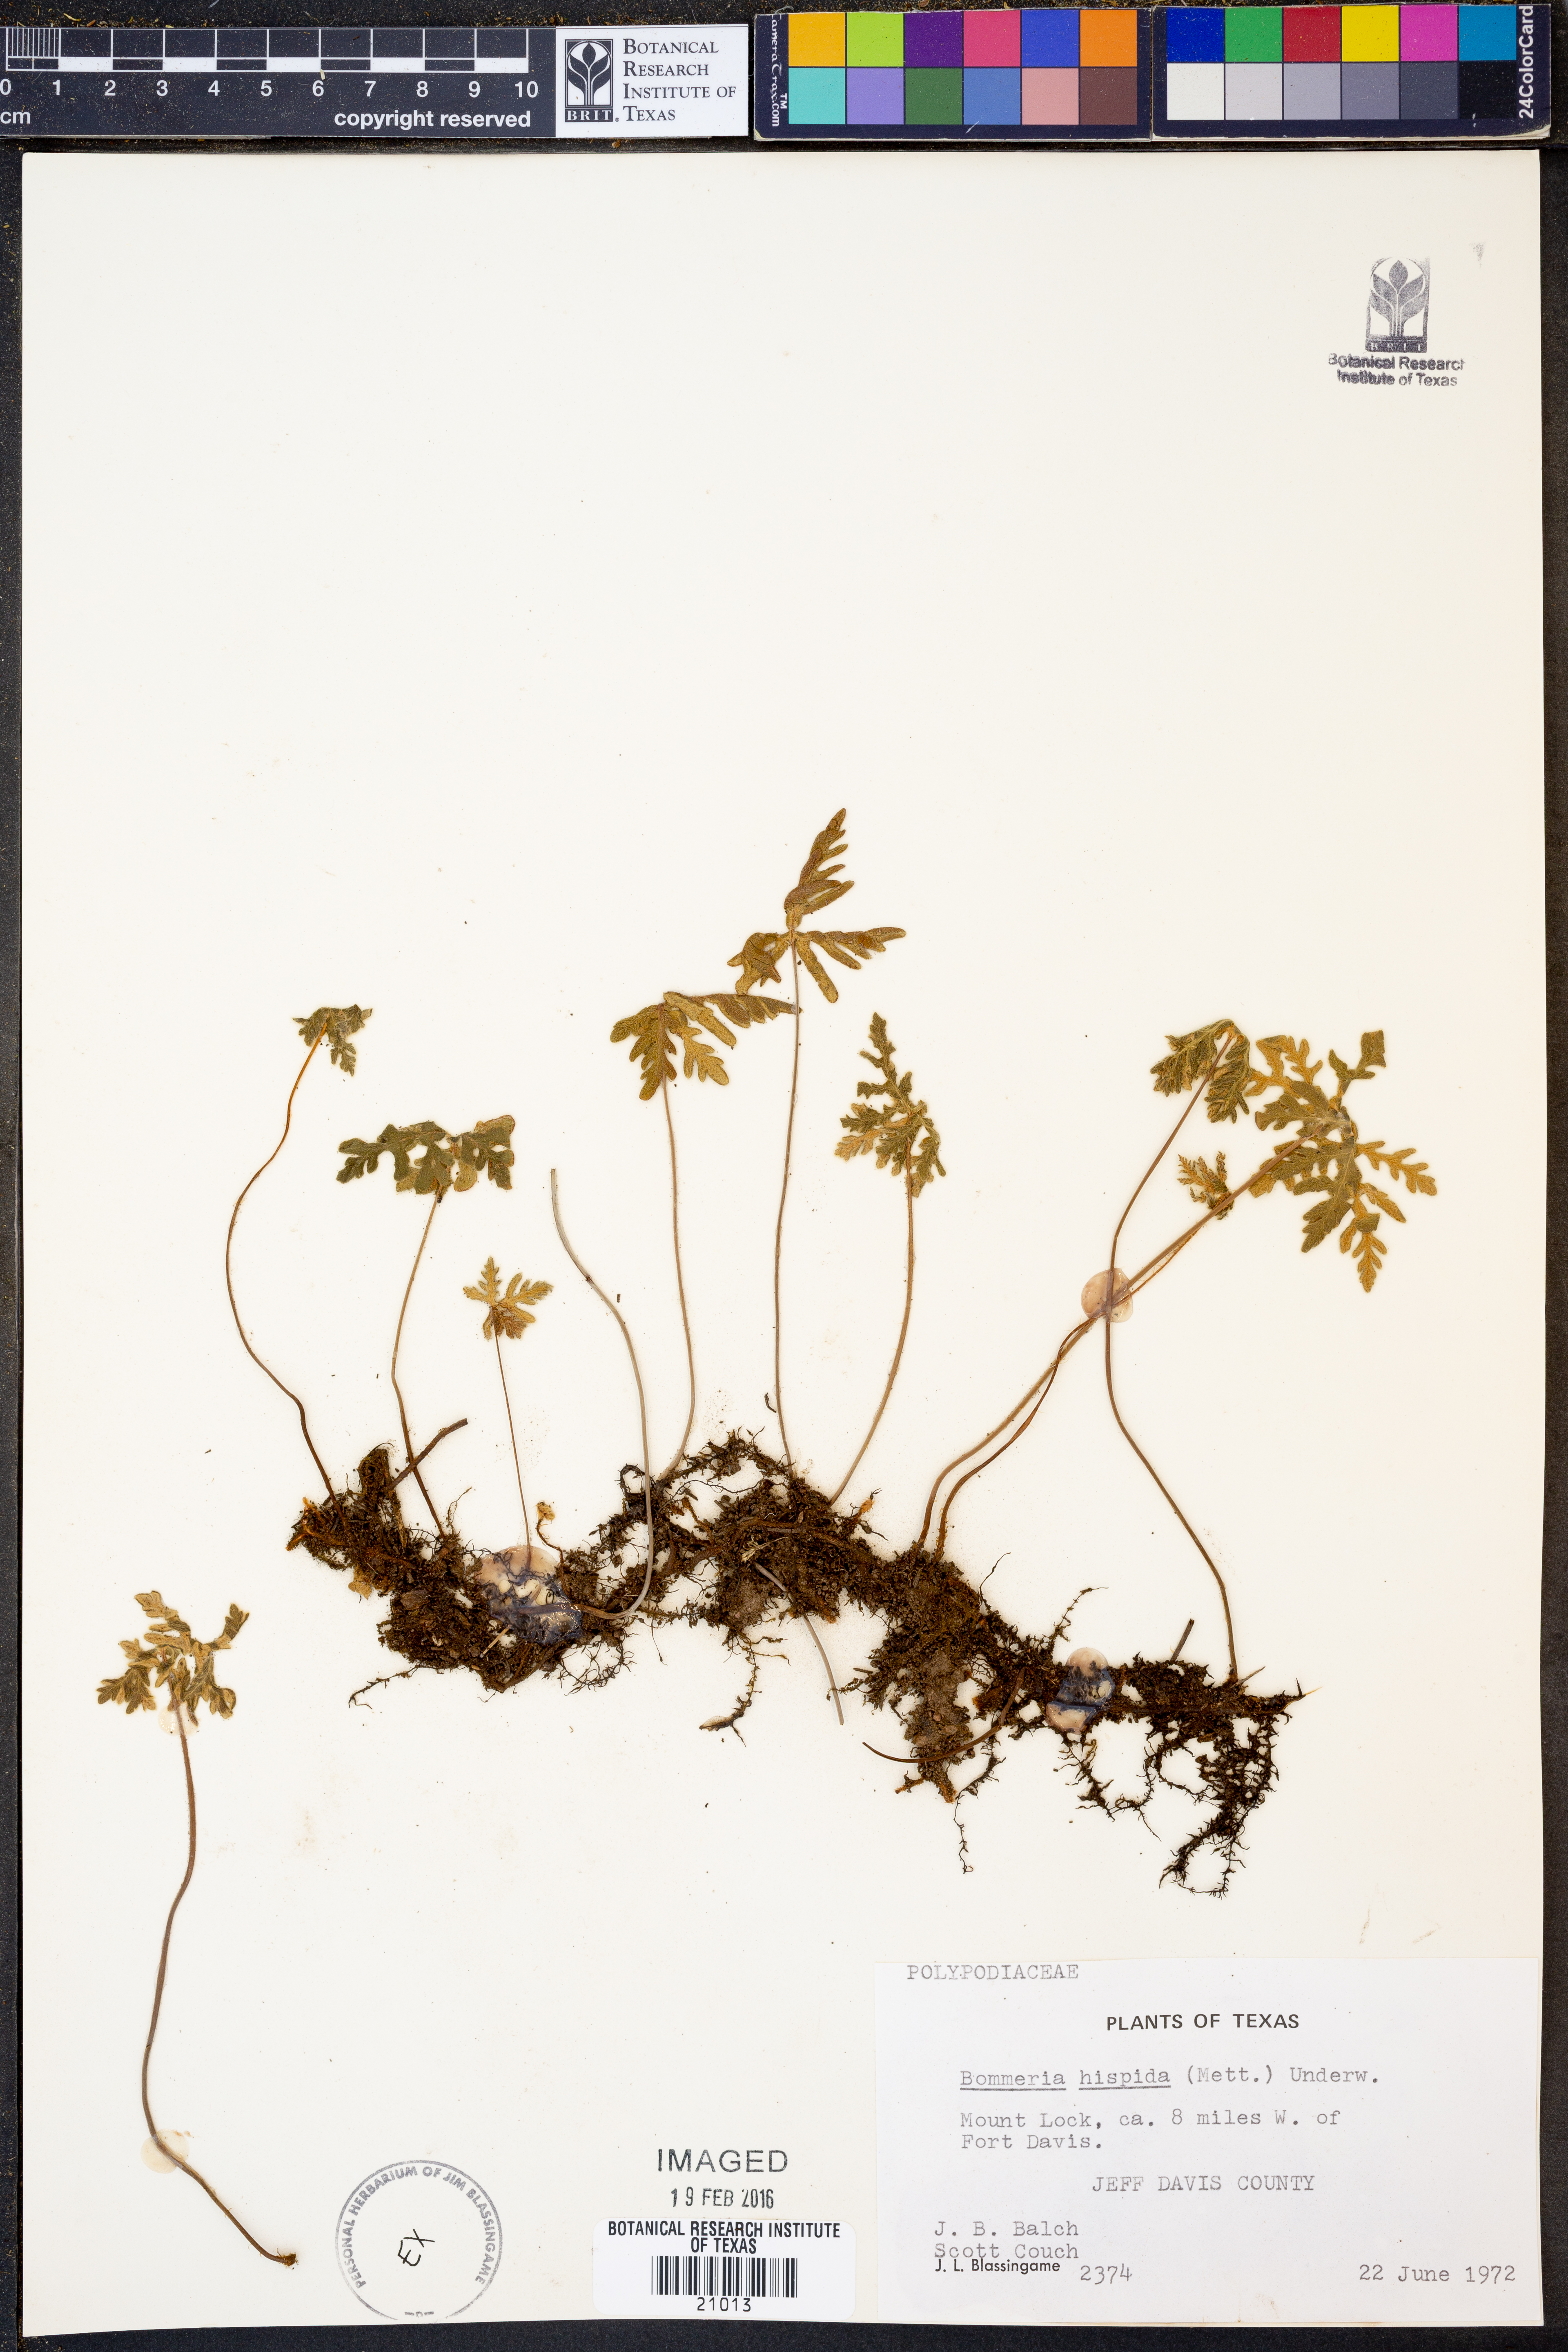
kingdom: Plantae
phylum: Tracheophyta
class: Polypodiopsida
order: Polypodiales
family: Pteridaceae
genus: Bommeria
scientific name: Bommeria hispida
